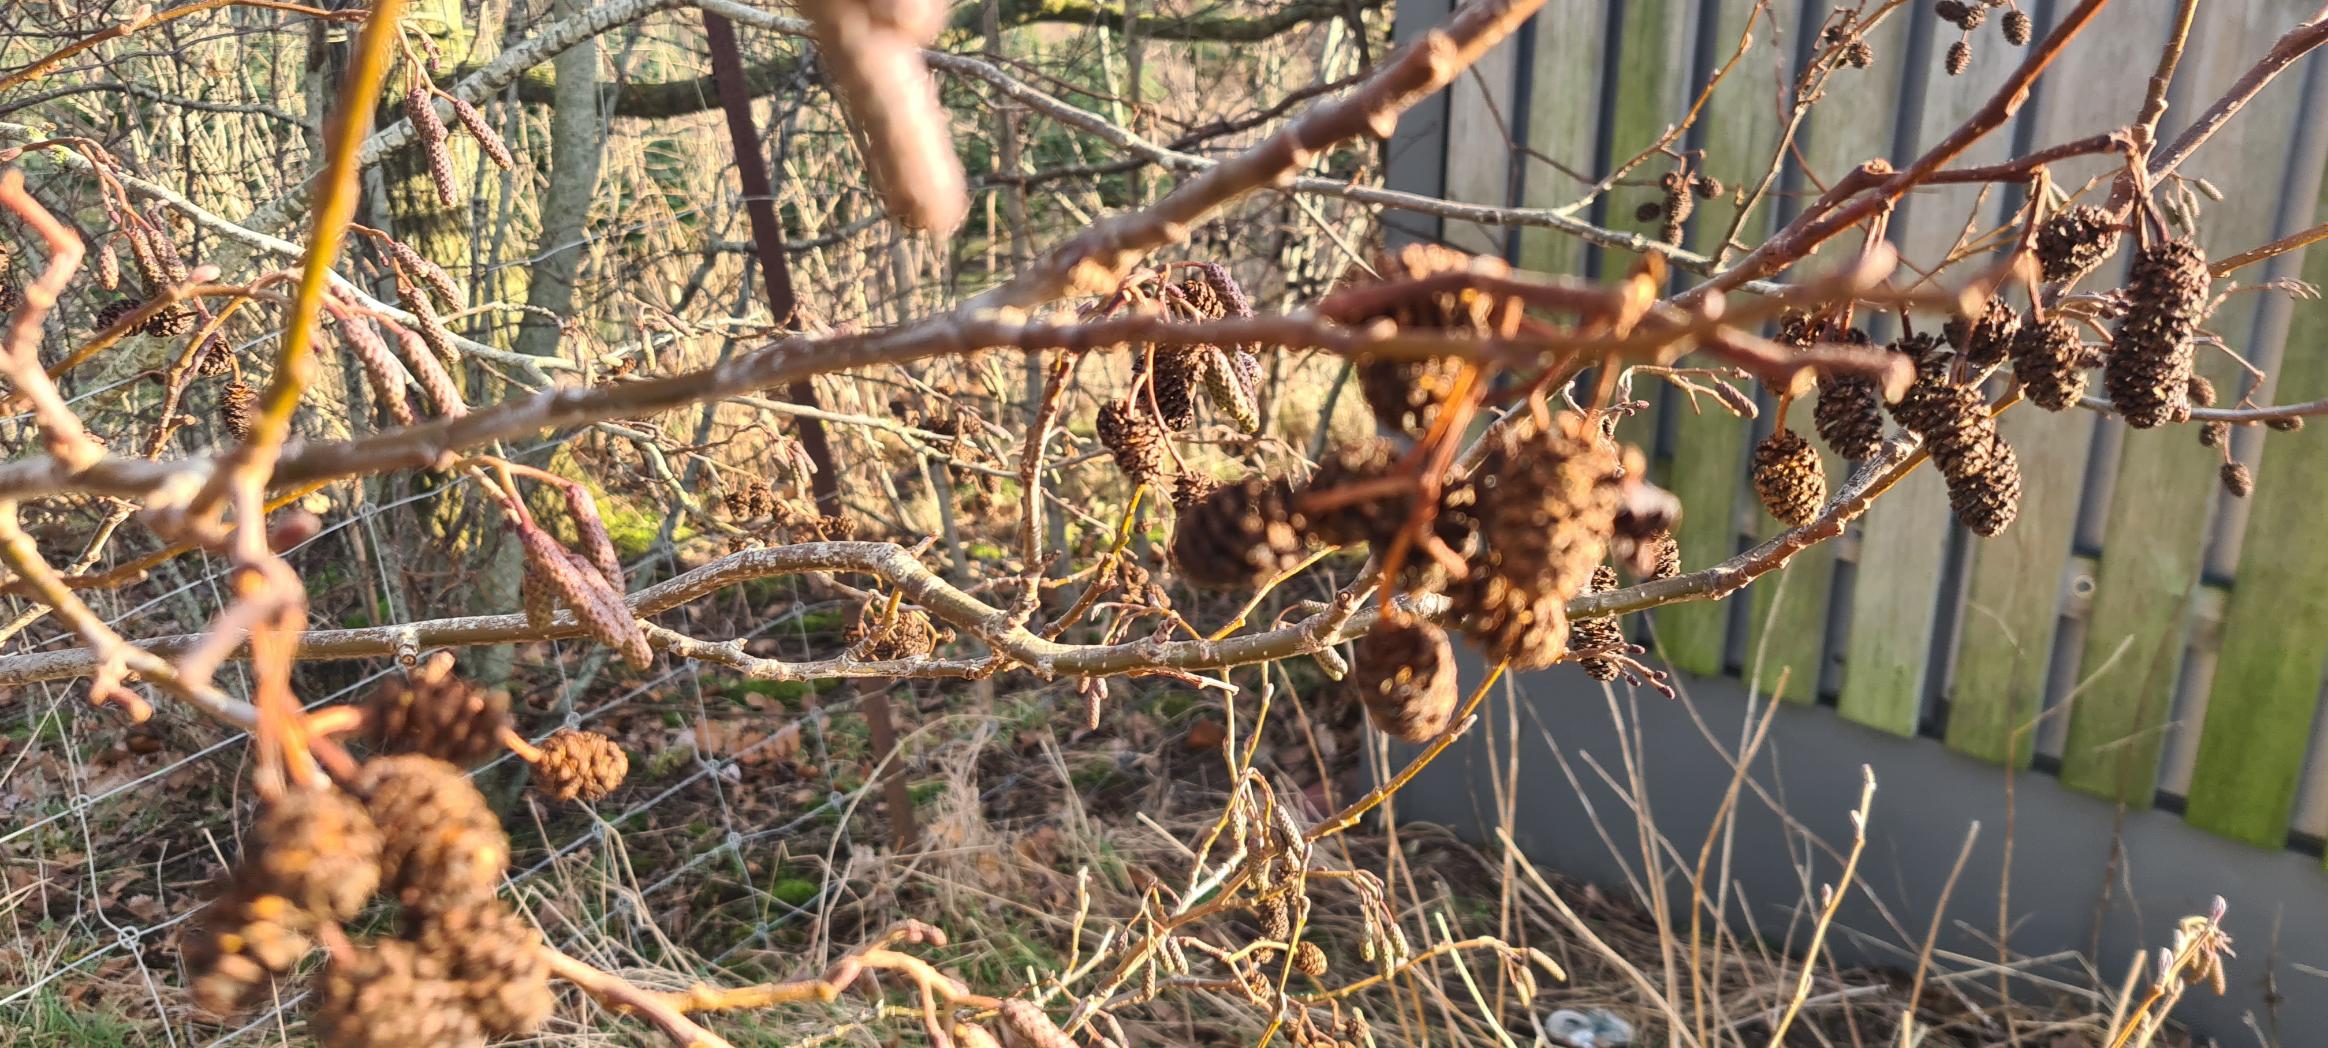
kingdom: Plantae
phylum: Tracheophyta
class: Magnoliopsida
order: Fagales
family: Betulaceae
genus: Alnus
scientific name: Alnus glutinosa
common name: Rød-el
